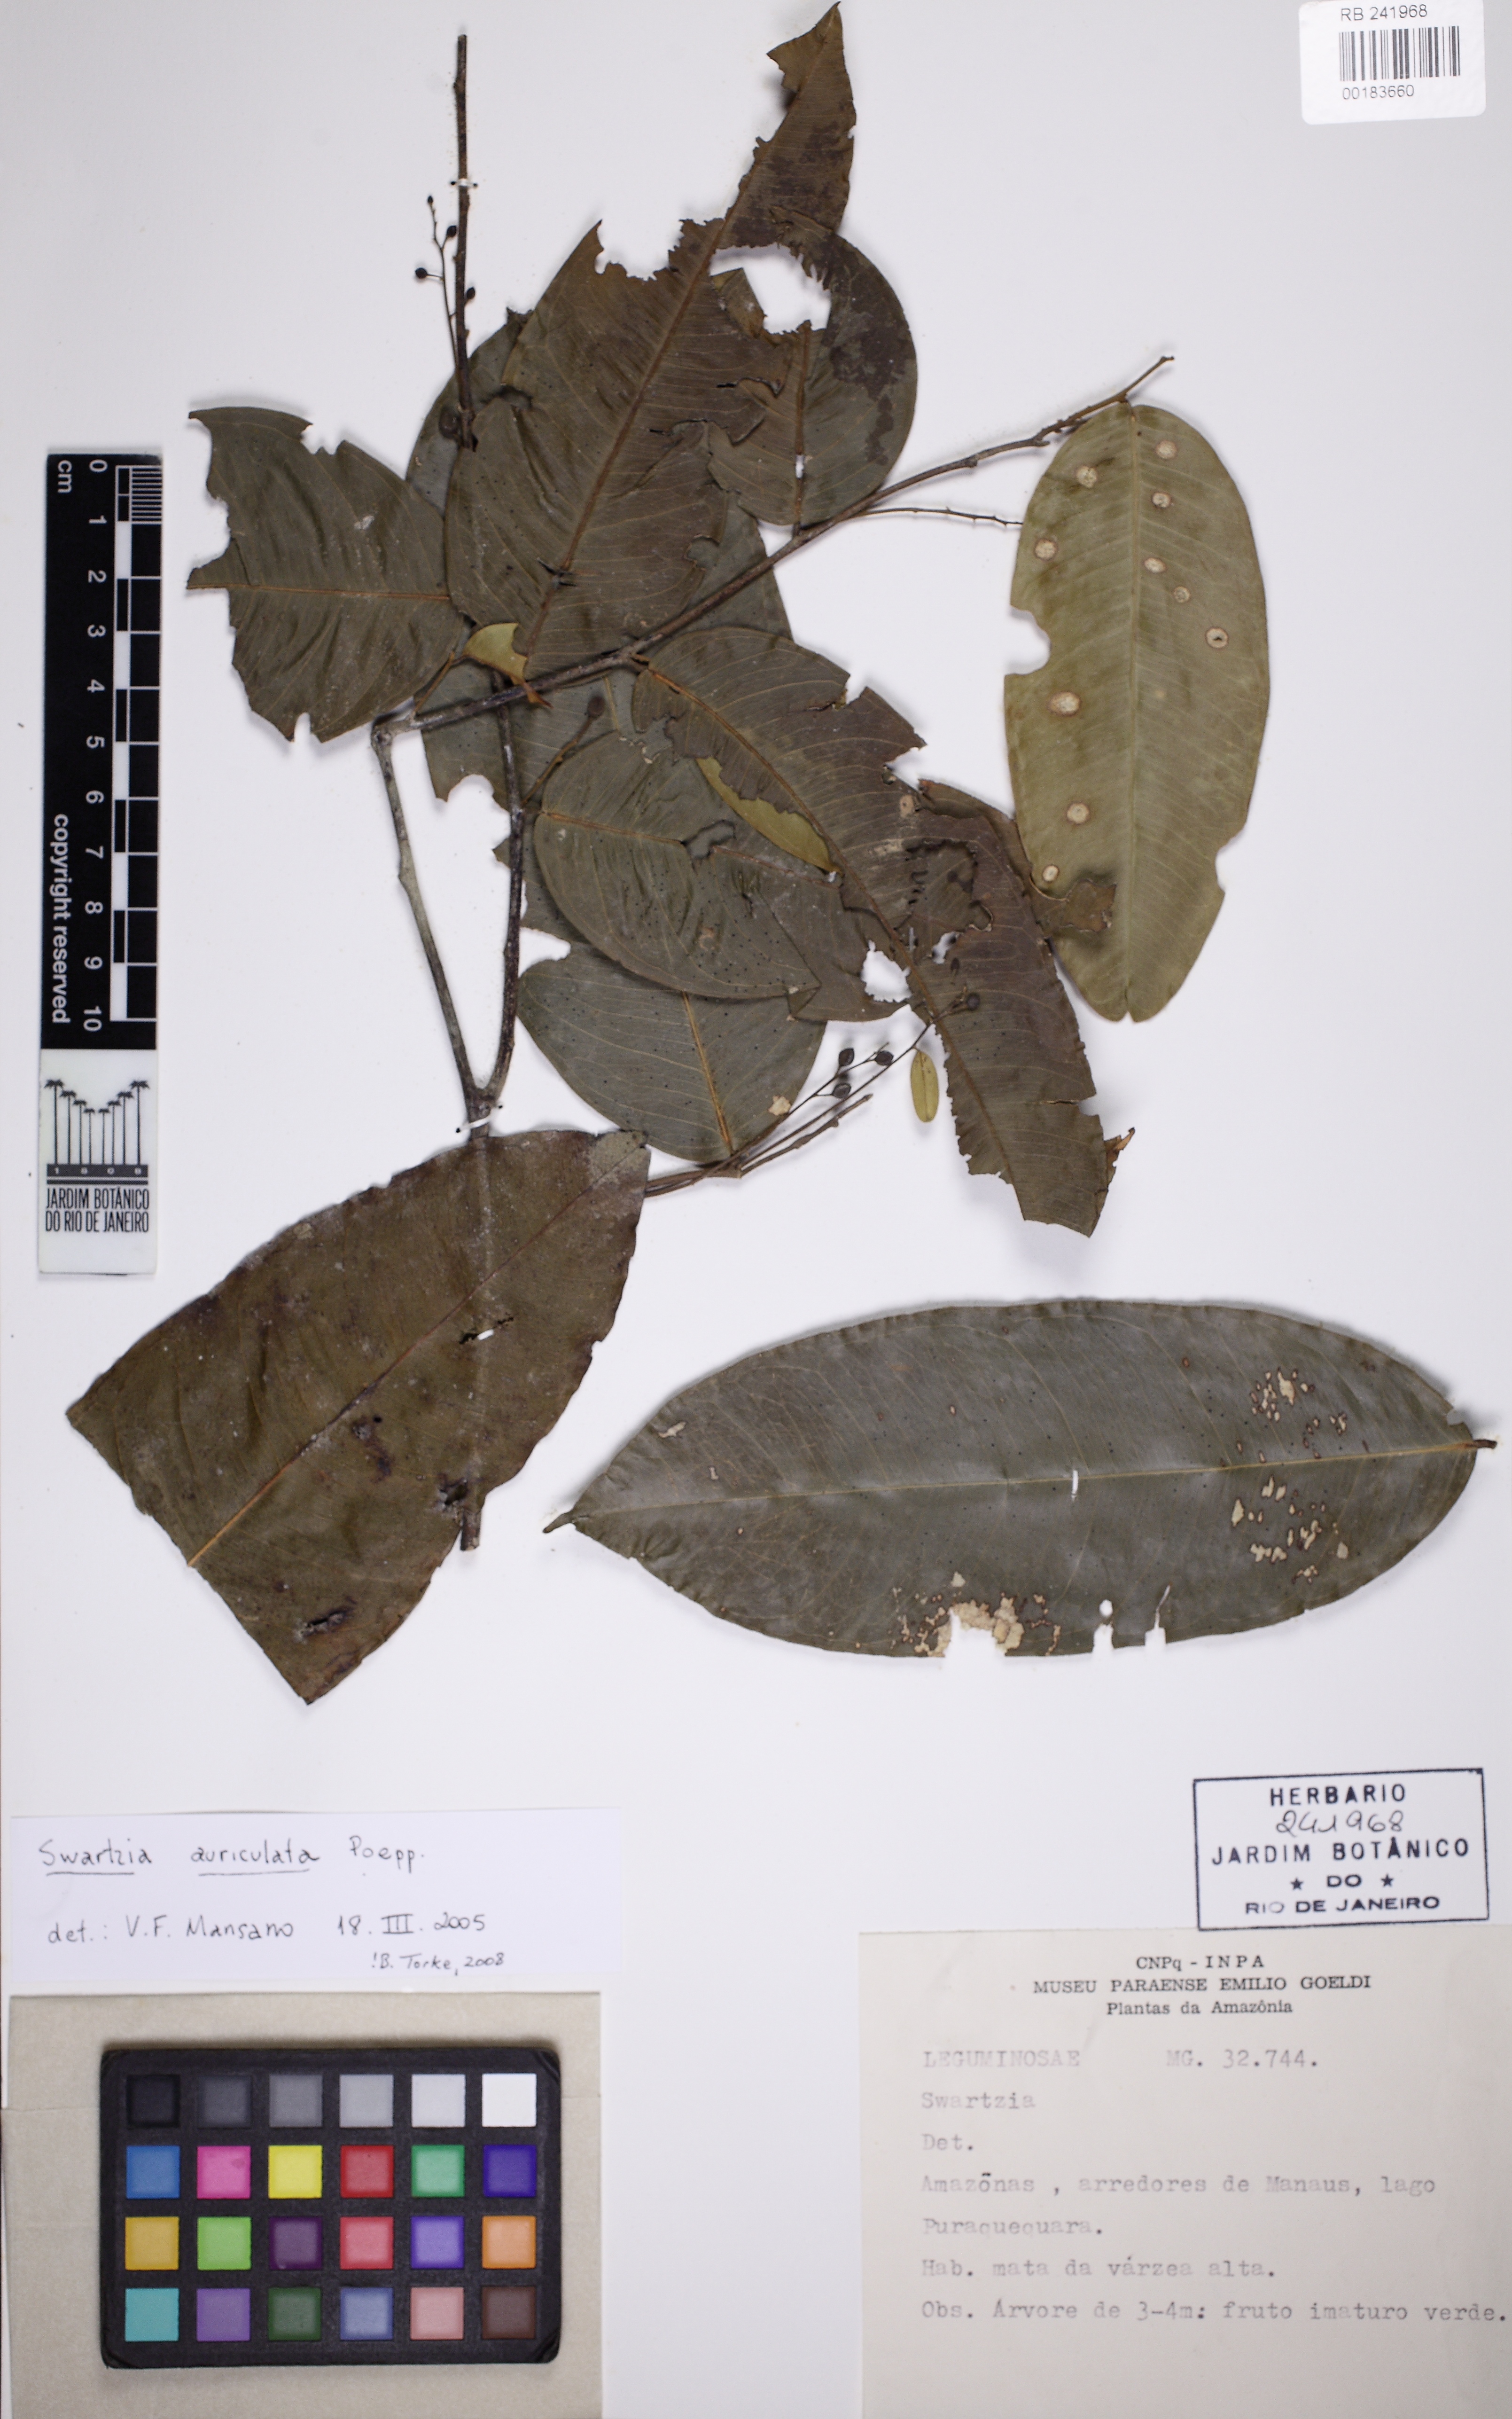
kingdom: Plantae
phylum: Tracheophyta
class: Magnoliopsida
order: Fabales
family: Fabaceae
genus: Swartzia
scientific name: Swartzia auriculata
